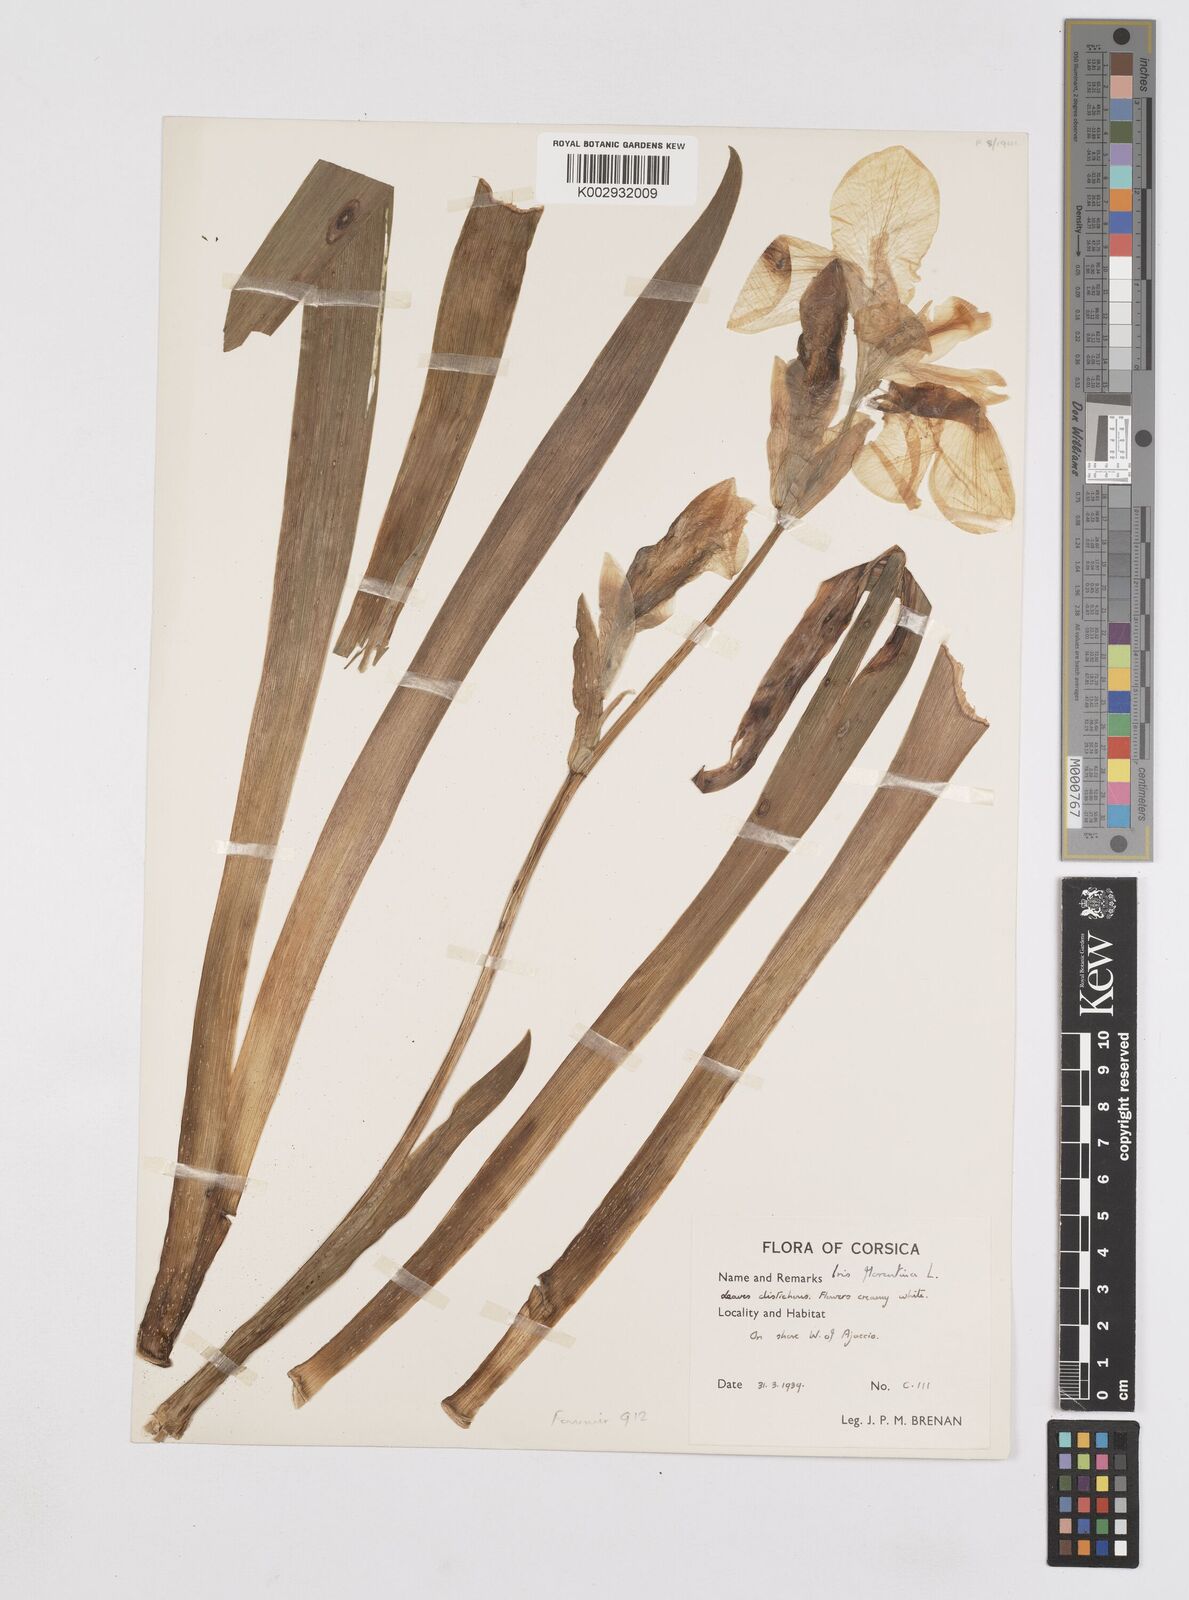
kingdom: Plantae
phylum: Tracheophyta
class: Liliopsida
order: Asparagales
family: Iridaceae
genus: Iris
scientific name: Iris germanica
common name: German iris
